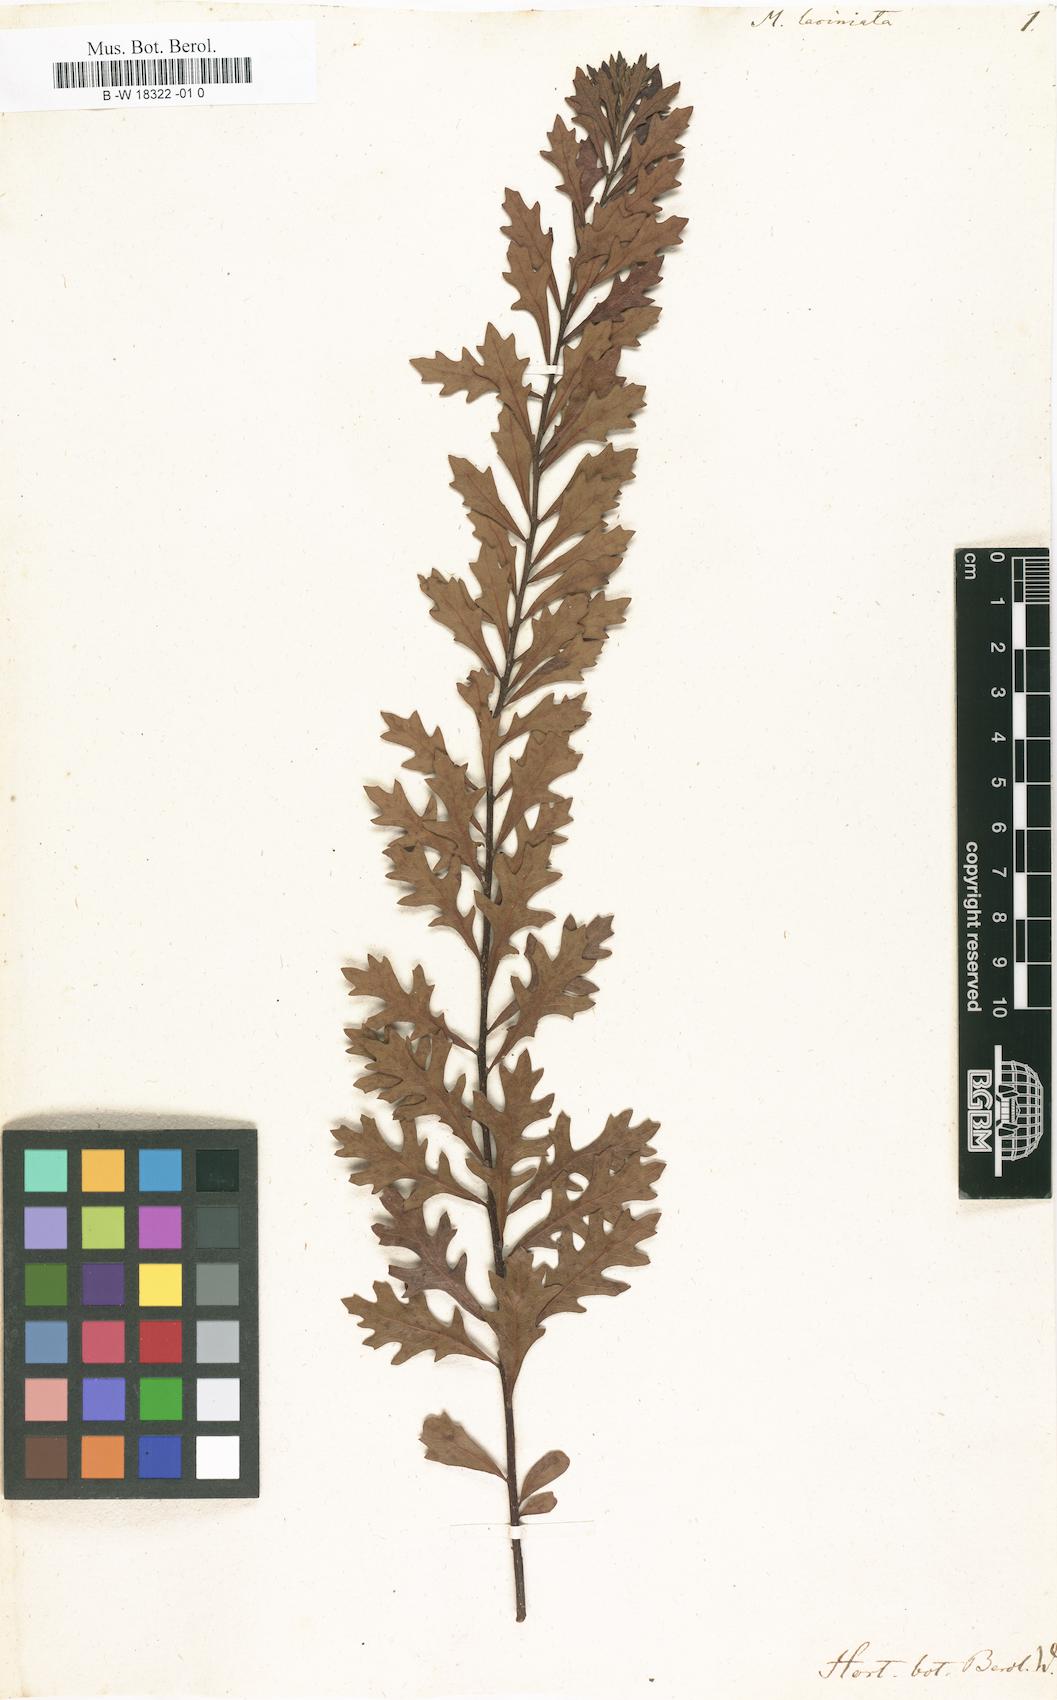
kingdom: Plantae
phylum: Tracheophyta
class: Magnoliopsida
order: Fagales
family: Myricaceae
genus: Morella
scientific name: Morella quercifolia
